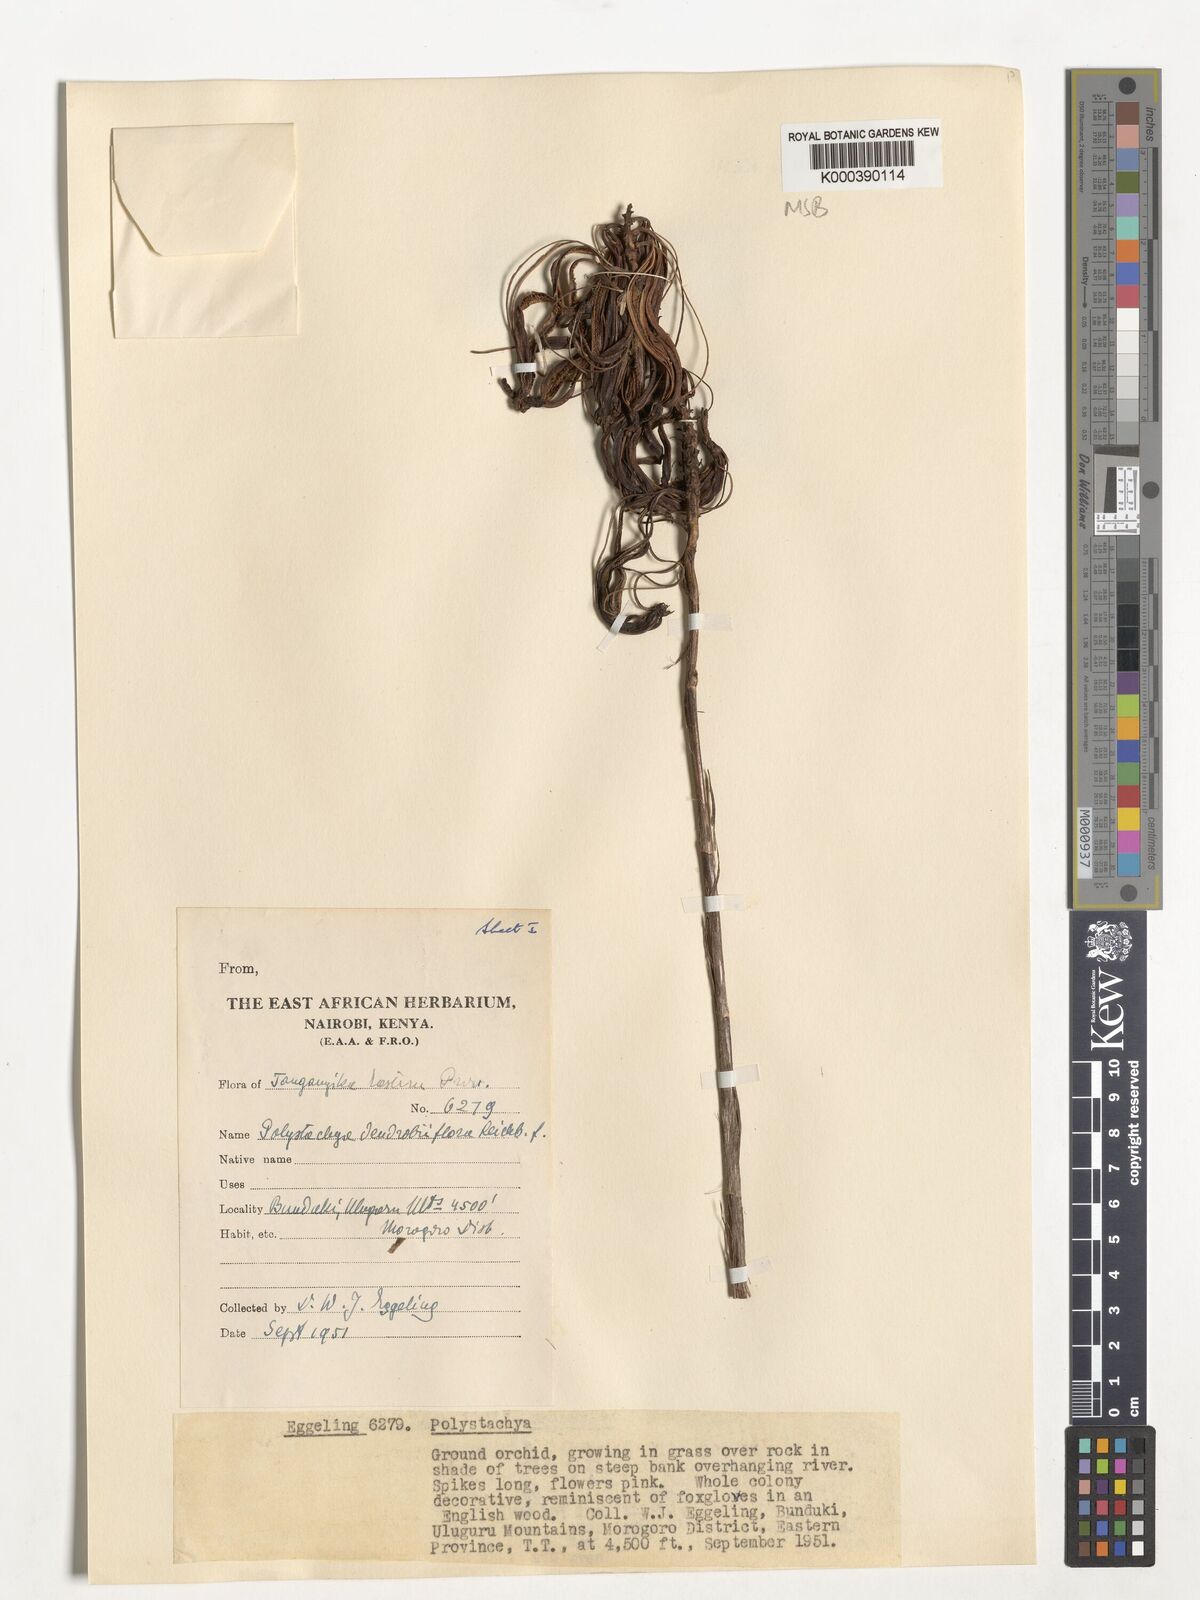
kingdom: Plantae
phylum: Tracheophyta
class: Liliopsida
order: Asparagales
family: Orchidaceae
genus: Polystachya
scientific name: Polystachya longiscapa
